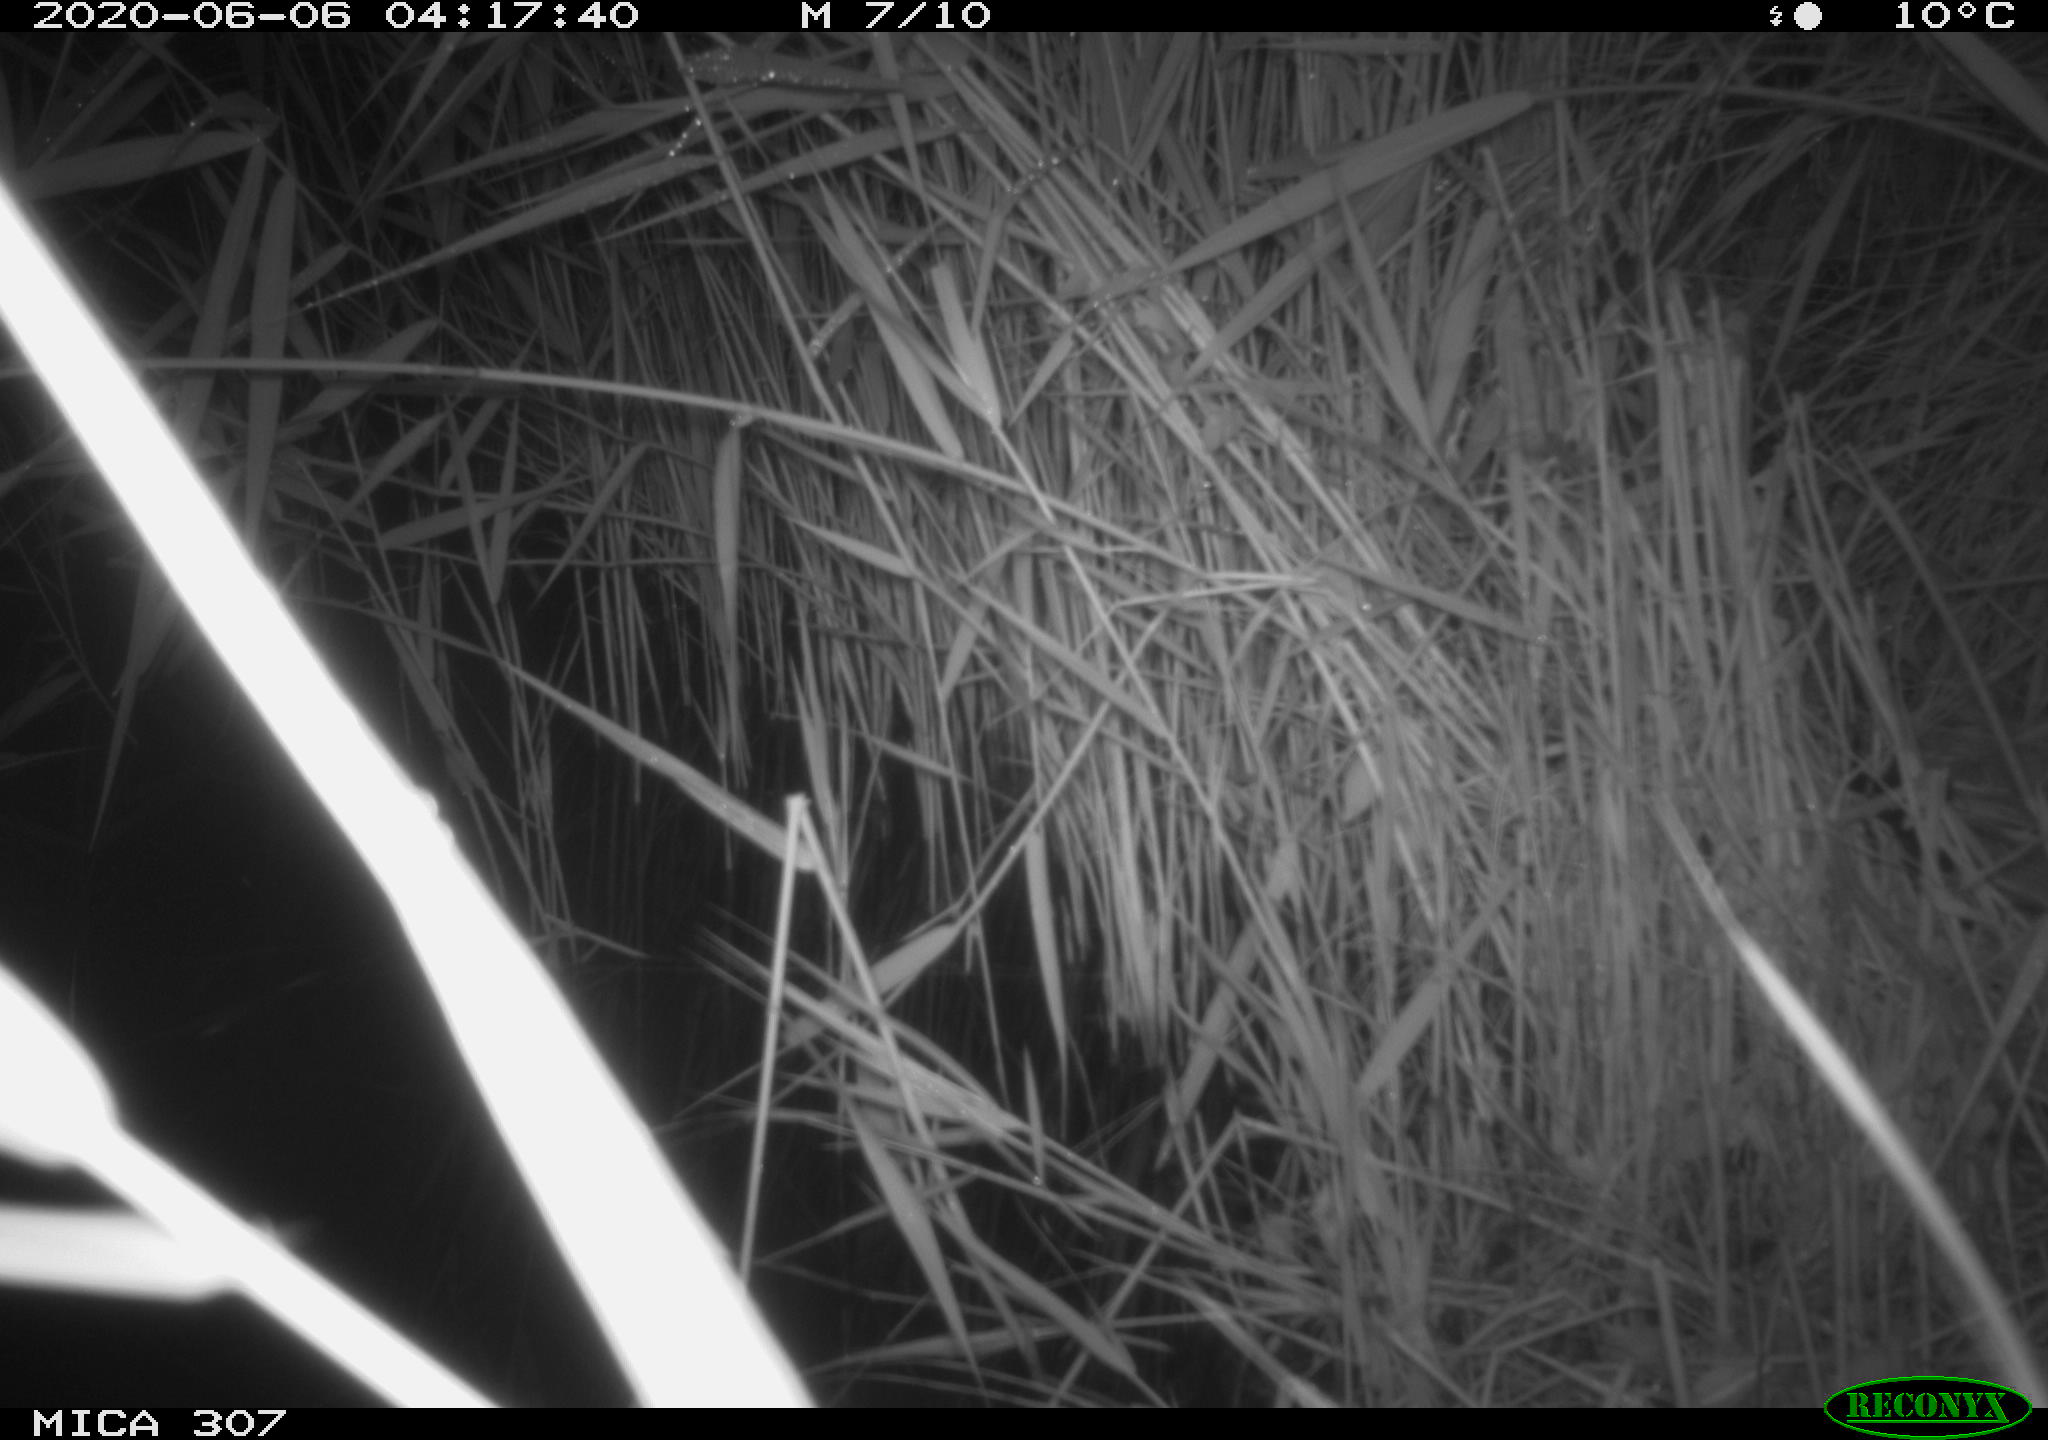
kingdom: Animalia
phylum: Chordata
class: Mammalia
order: Rodentia
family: Muridae
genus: Rattus
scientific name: Rattus norvegicus
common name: Brown rat
